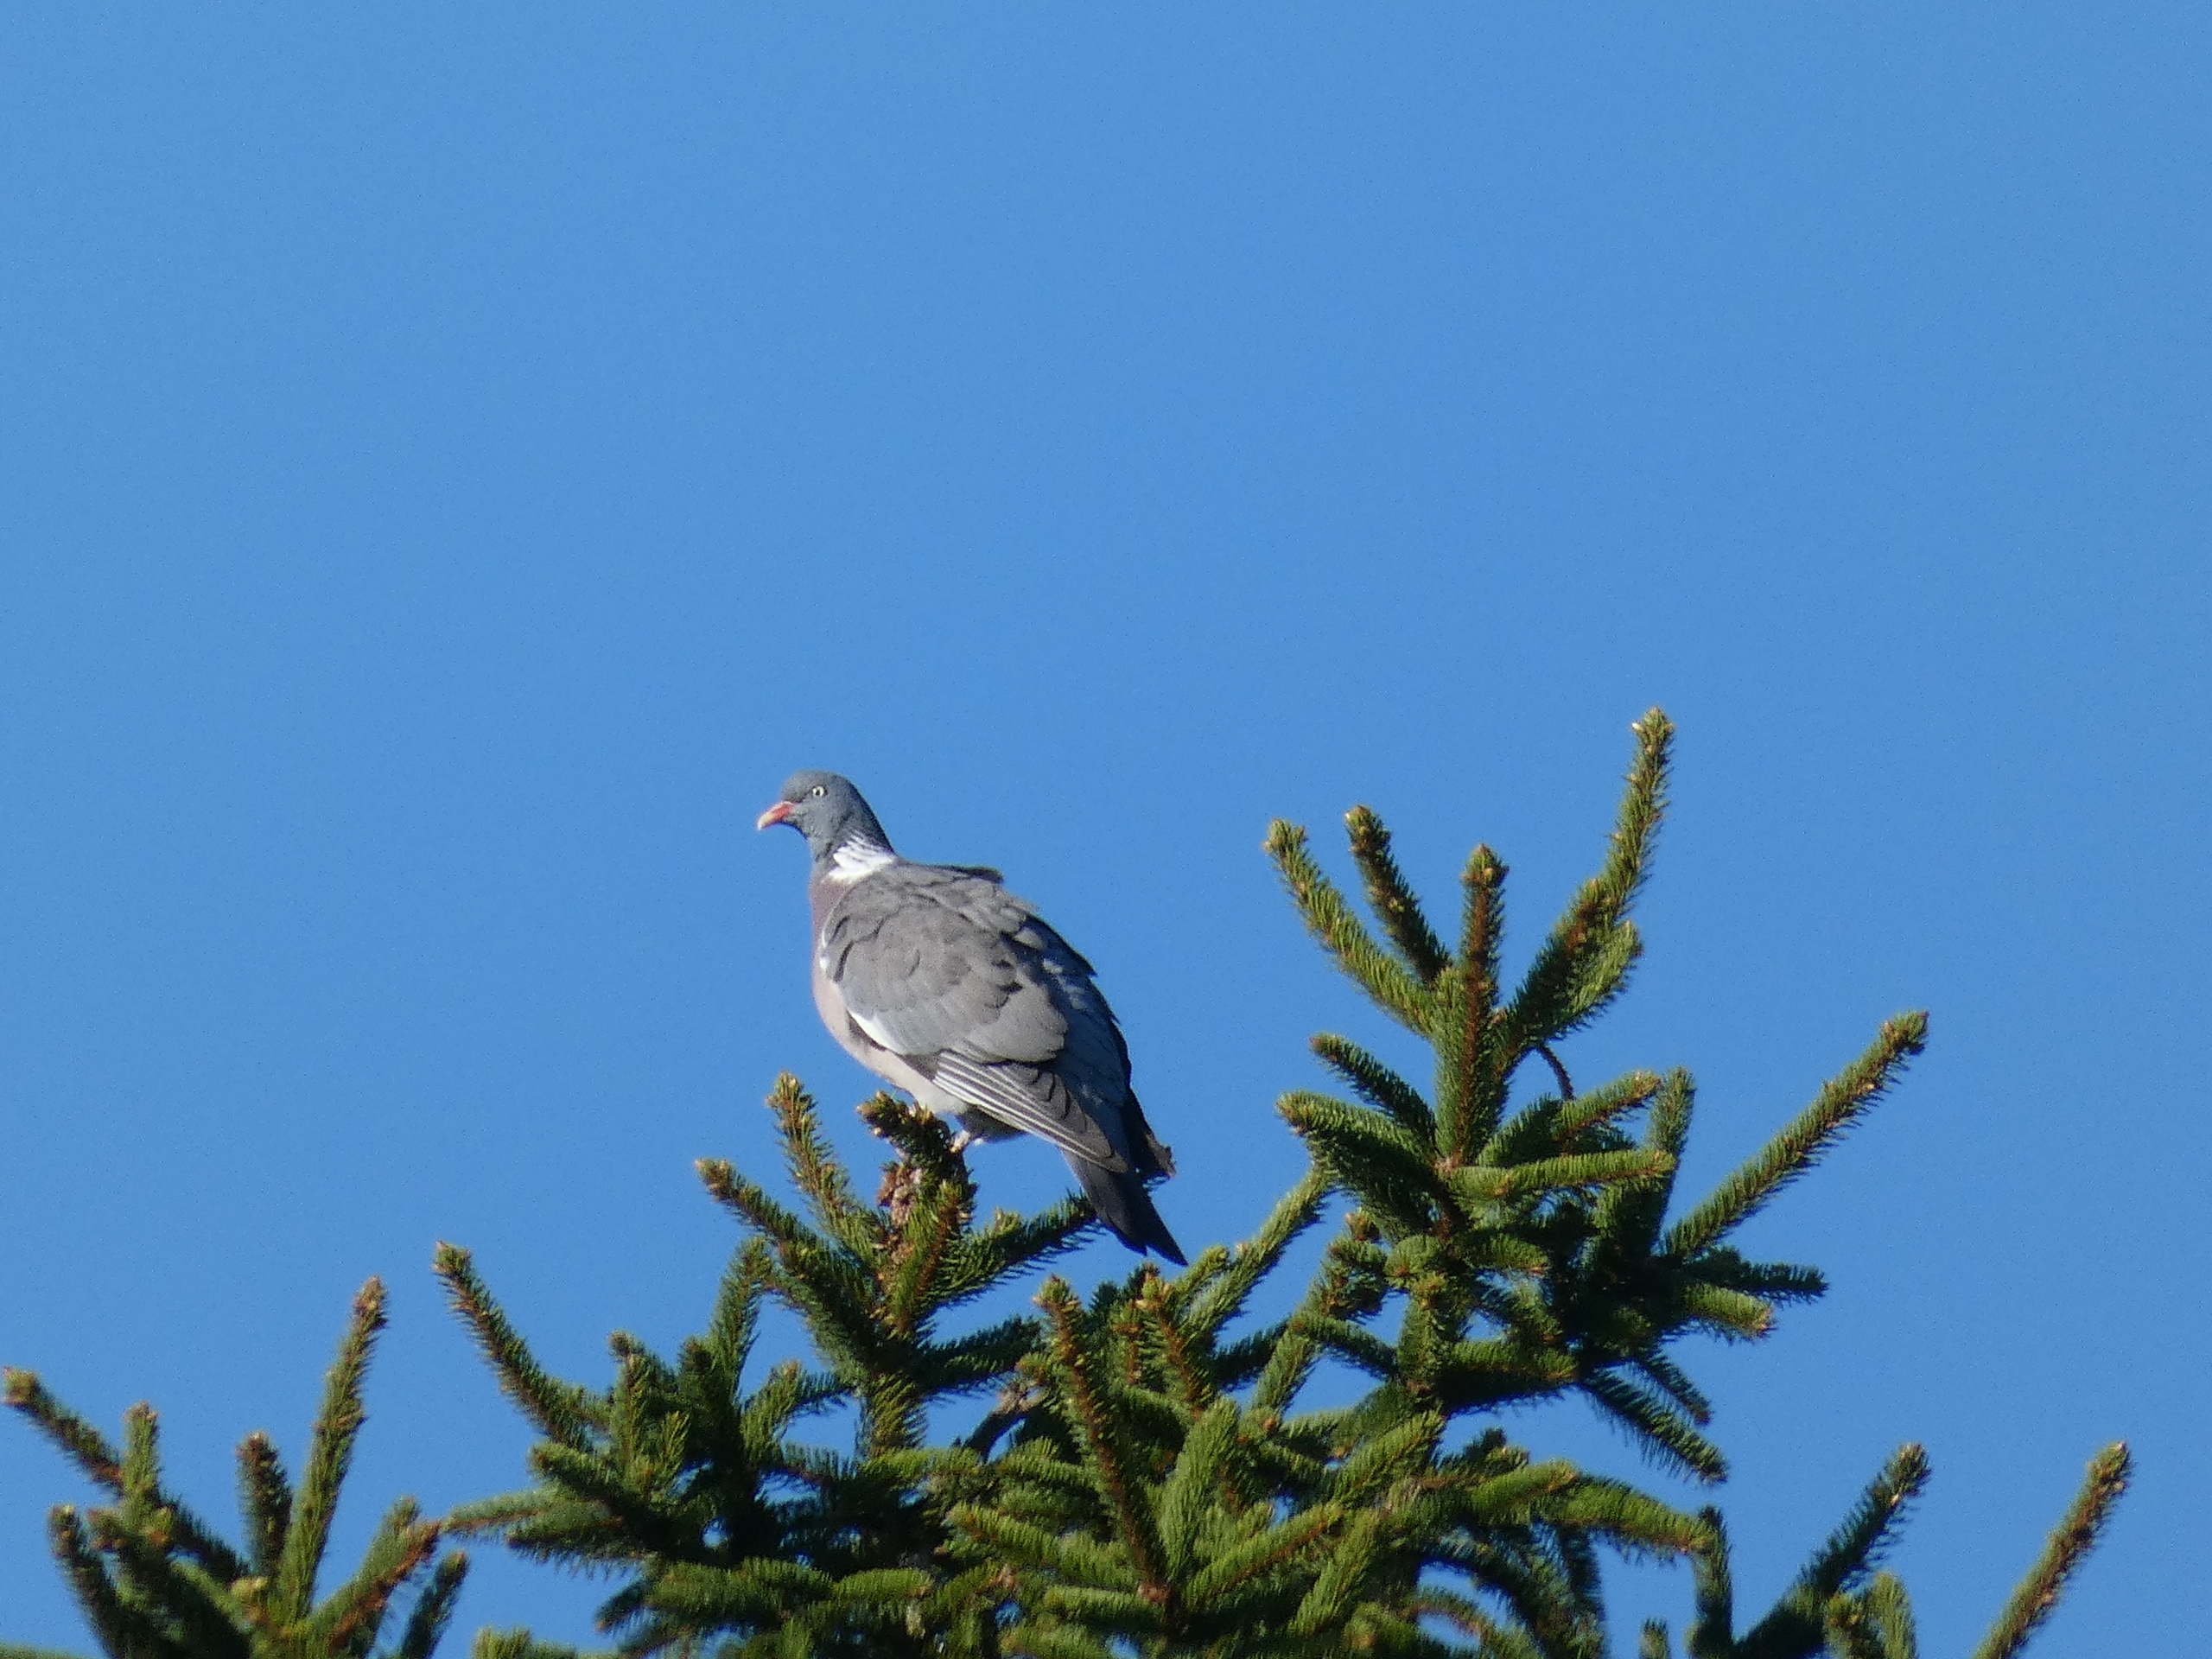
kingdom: Animalia
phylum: Chordata
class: Aves
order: Columbiformes
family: Columbidae
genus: Columba
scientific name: Columba palumbus
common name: Ringdue
